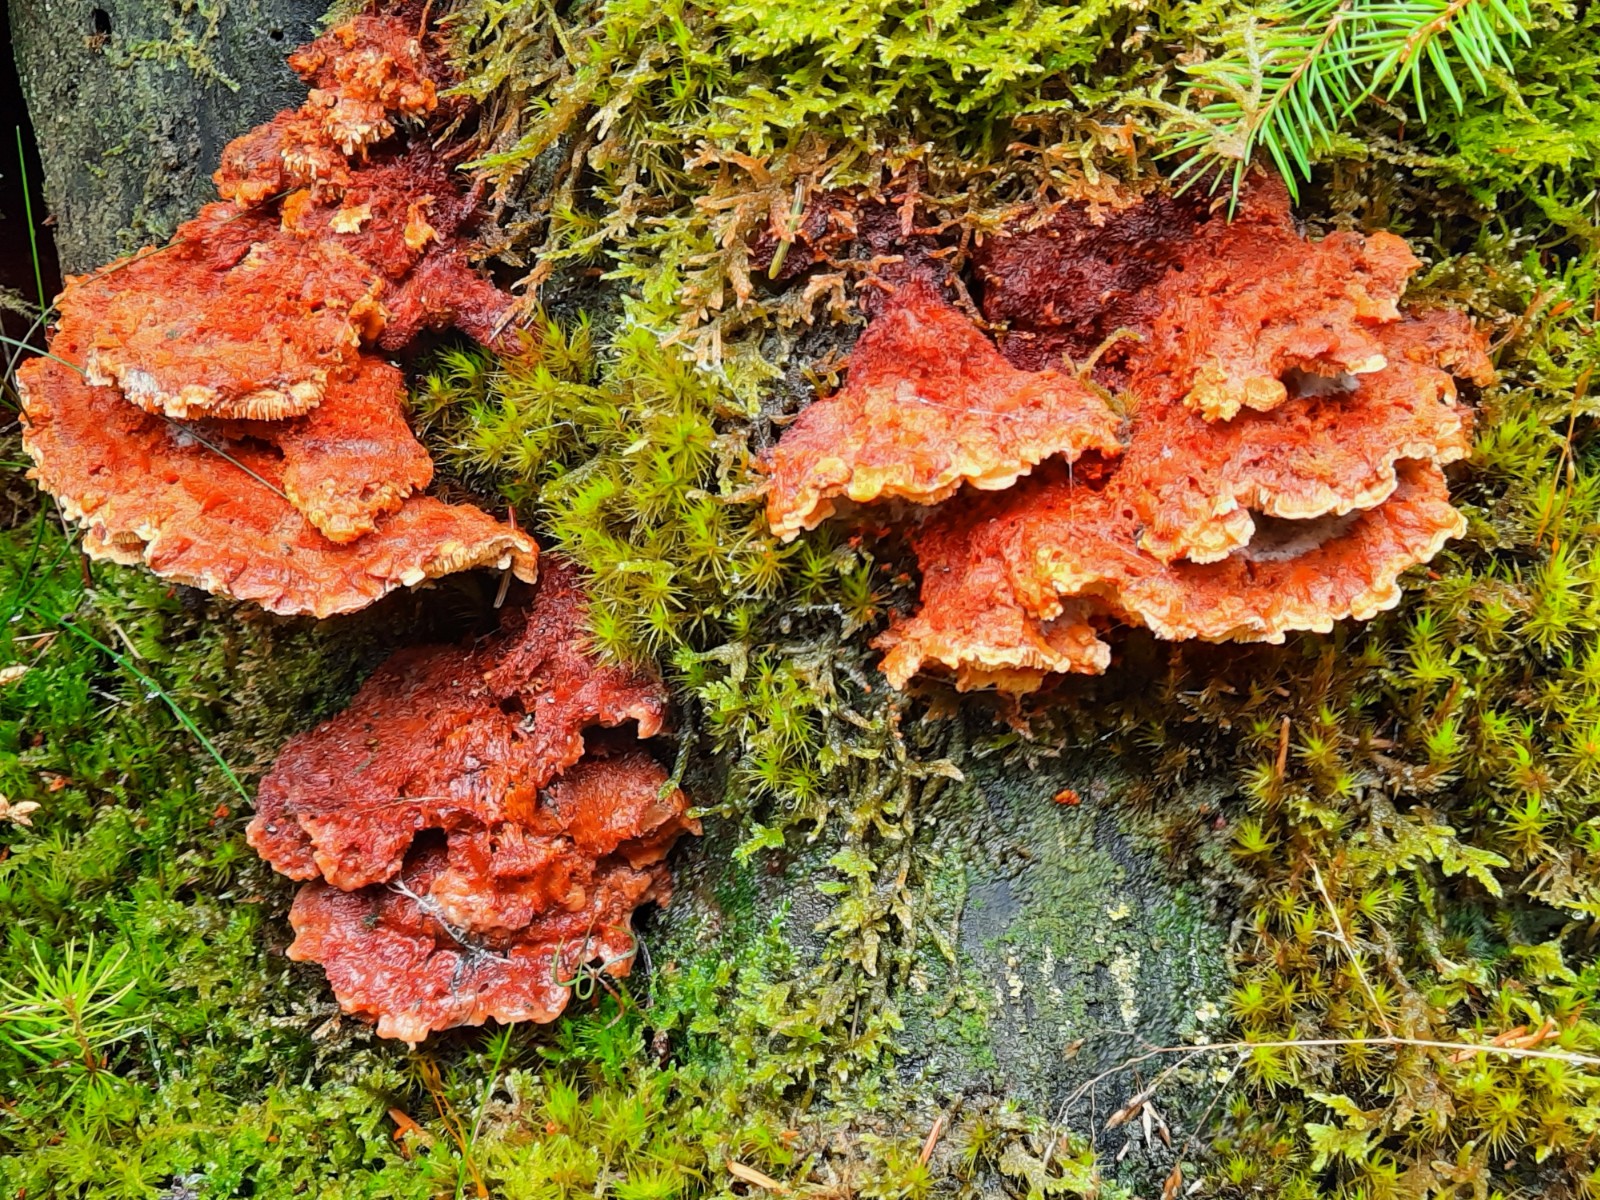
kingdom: Fungi
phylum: Basidiomycota
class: Agaricomycetes
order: Polyporales
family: Pycnoporellaceae
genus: Pycnoporellus
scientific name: Pycnoporellus fulgens
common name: flammeporesvamp
